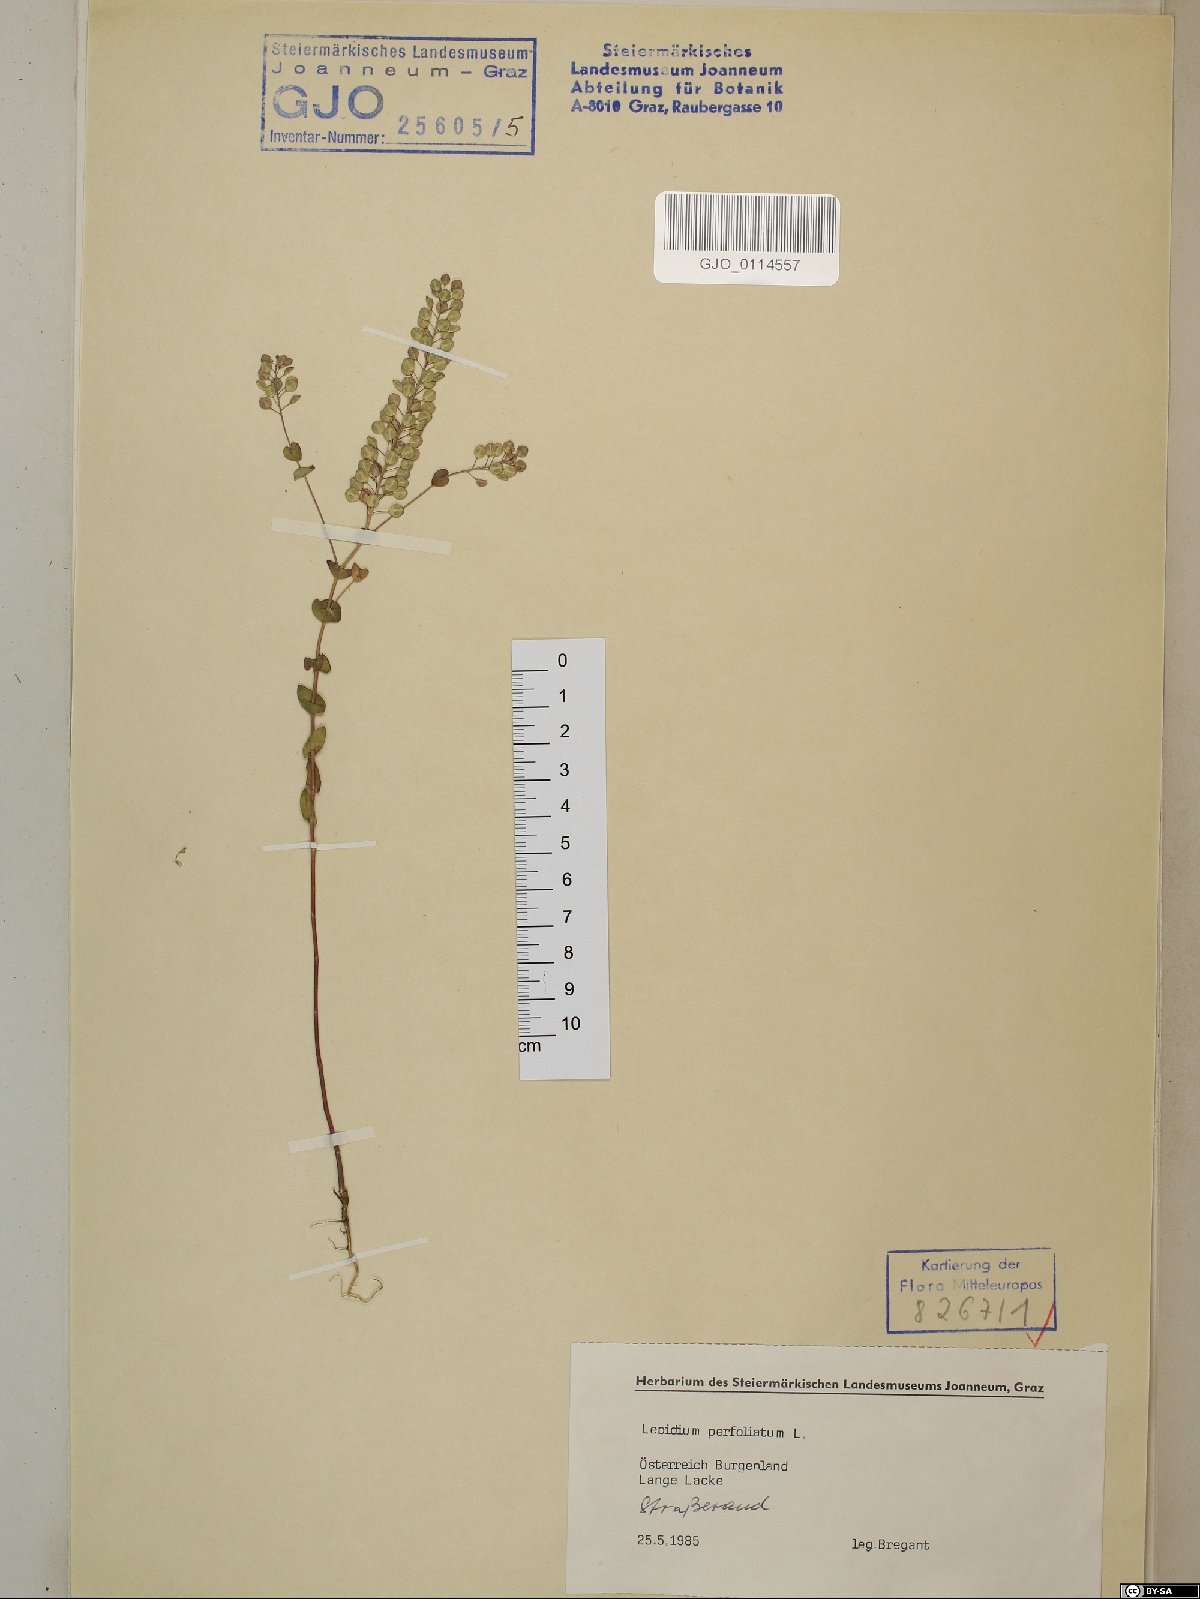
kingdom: Plantae
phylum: Tracheophyta
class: Magnoliopsida
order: Brassicales
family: Brassicaceae
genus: Lepidium
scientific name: Lepidium perfoliatum
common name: Perfoliate pepperwort
